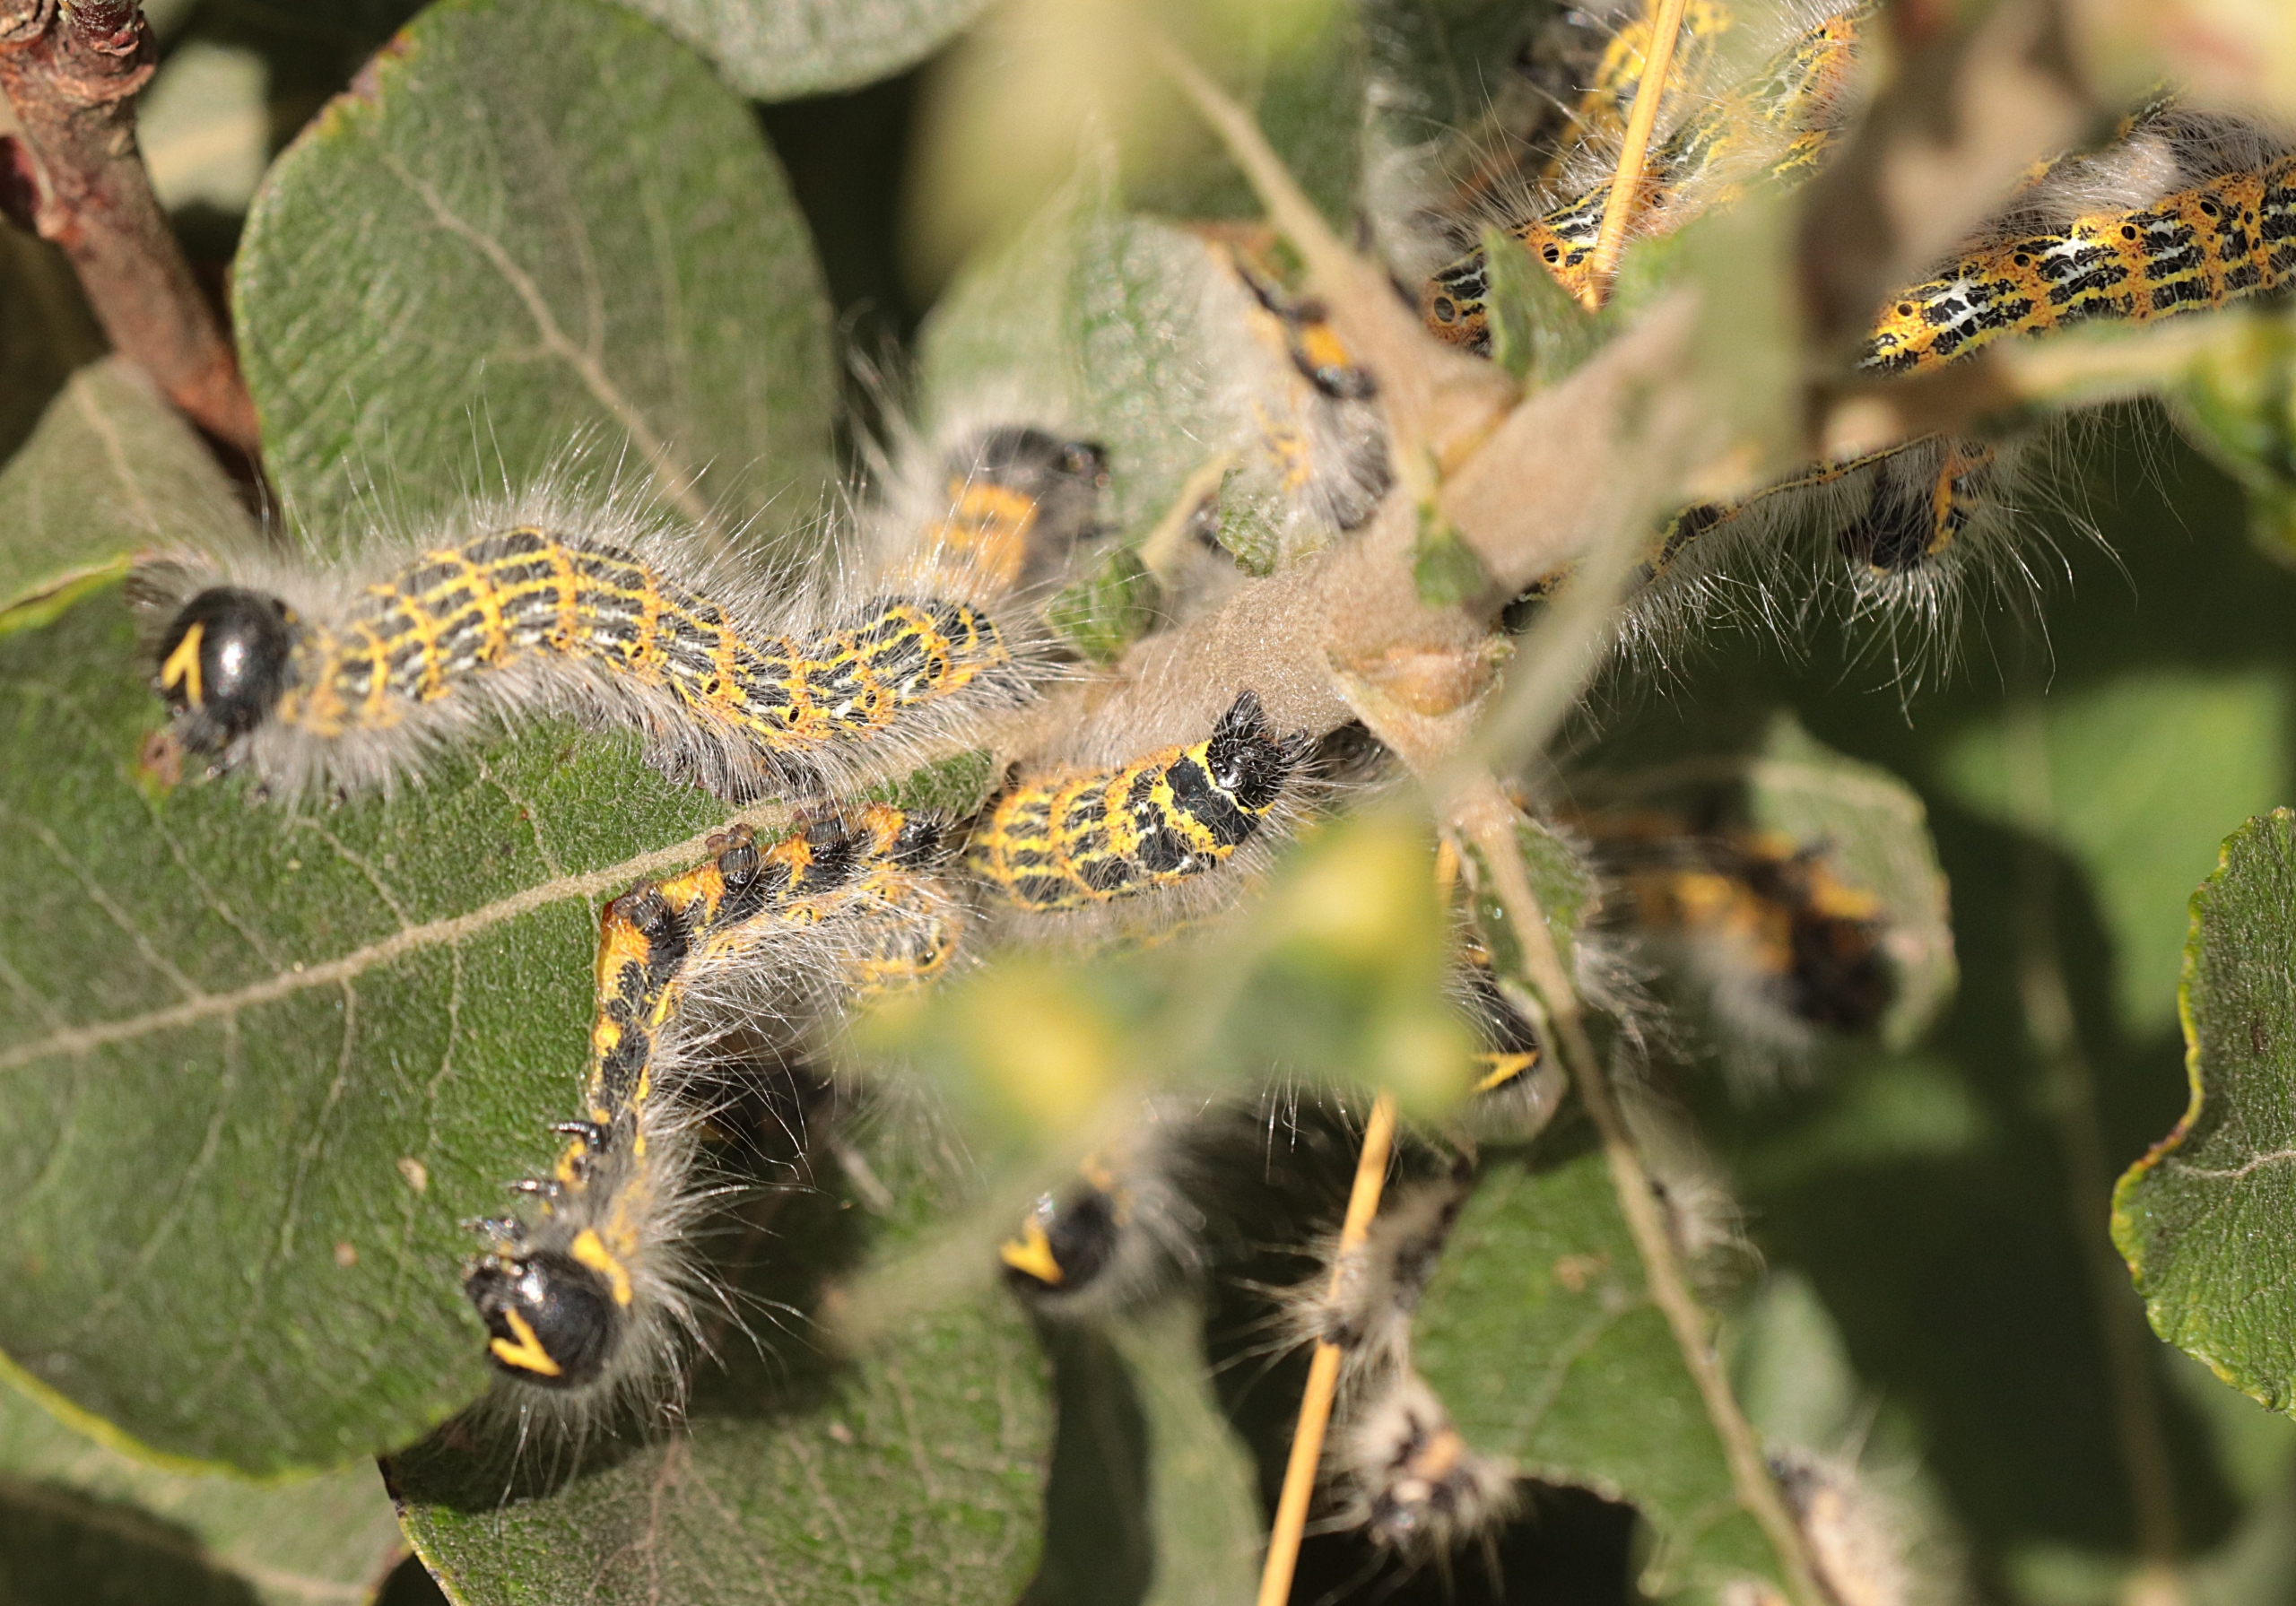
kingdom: Animalia
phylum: Arthropoda
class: Insecta
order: Lepidoptera
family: Notodontidae
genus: Phalera
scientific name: Phalera bucephala
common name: Måneplet
